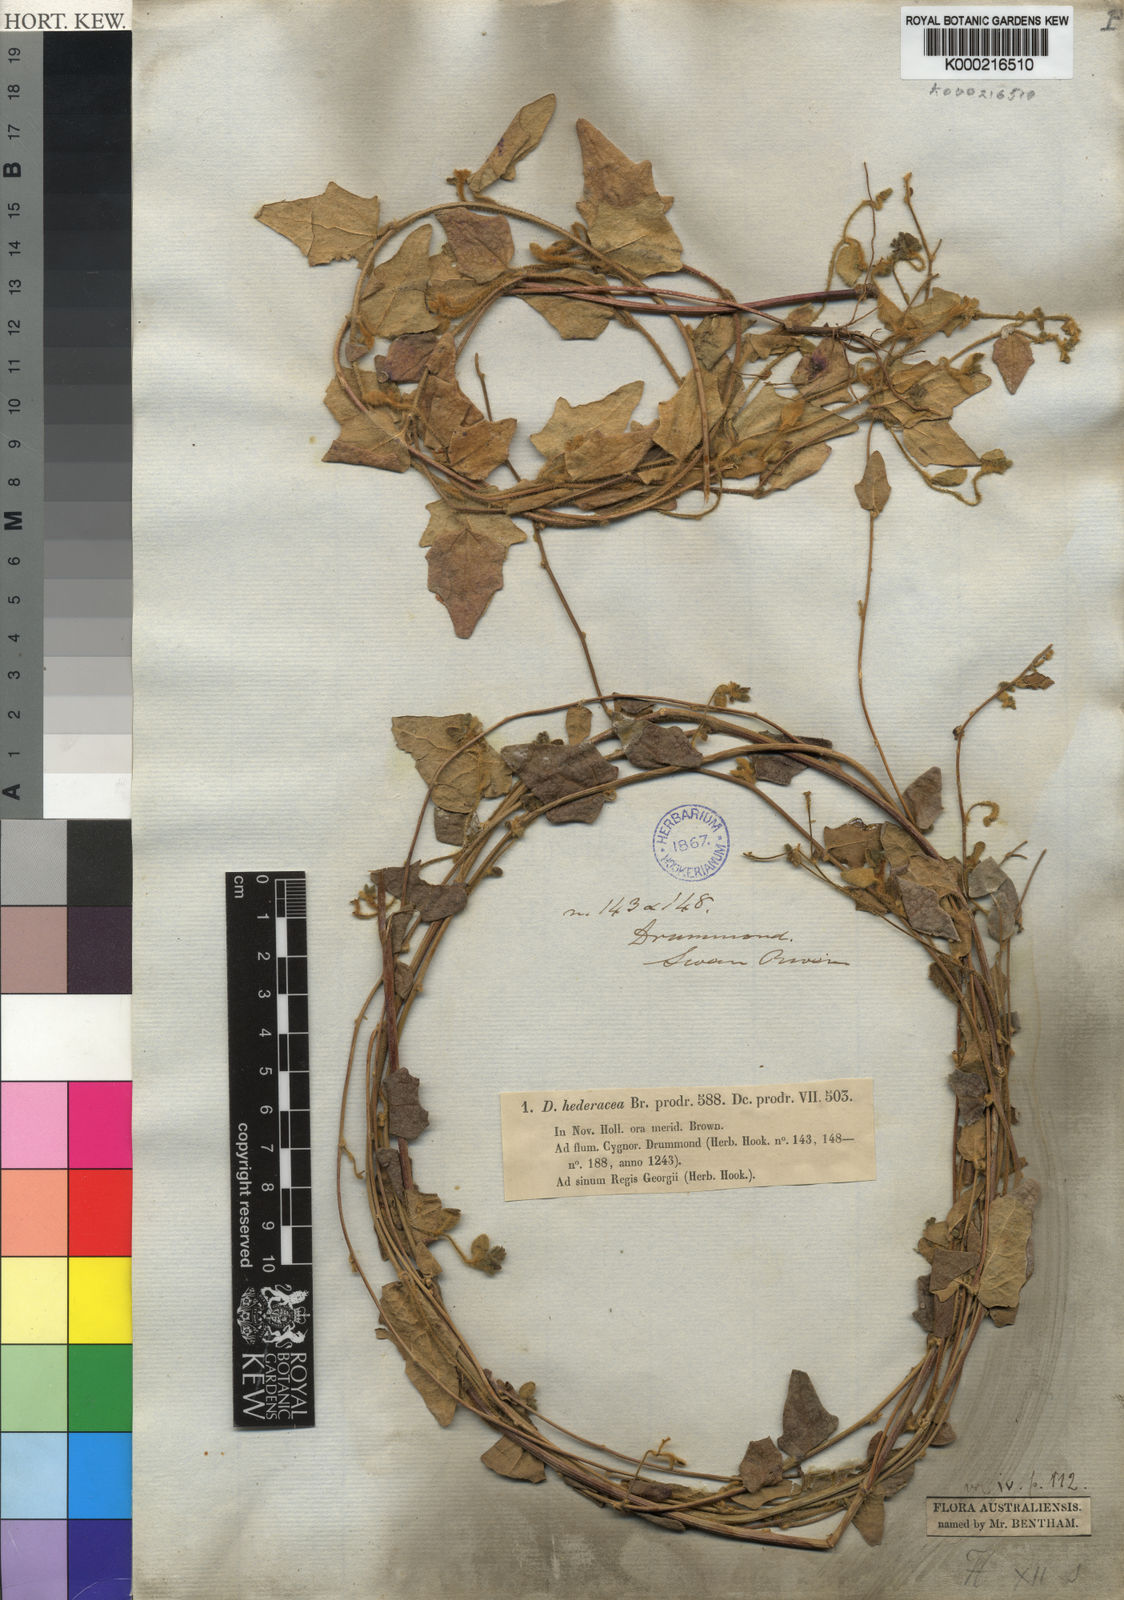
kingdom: Plantae
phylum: Tracheophyta
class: Magnoliopsida
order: Asterales
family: Goodeniaceae
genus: Dampiera
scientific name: Dampiera hederacea
